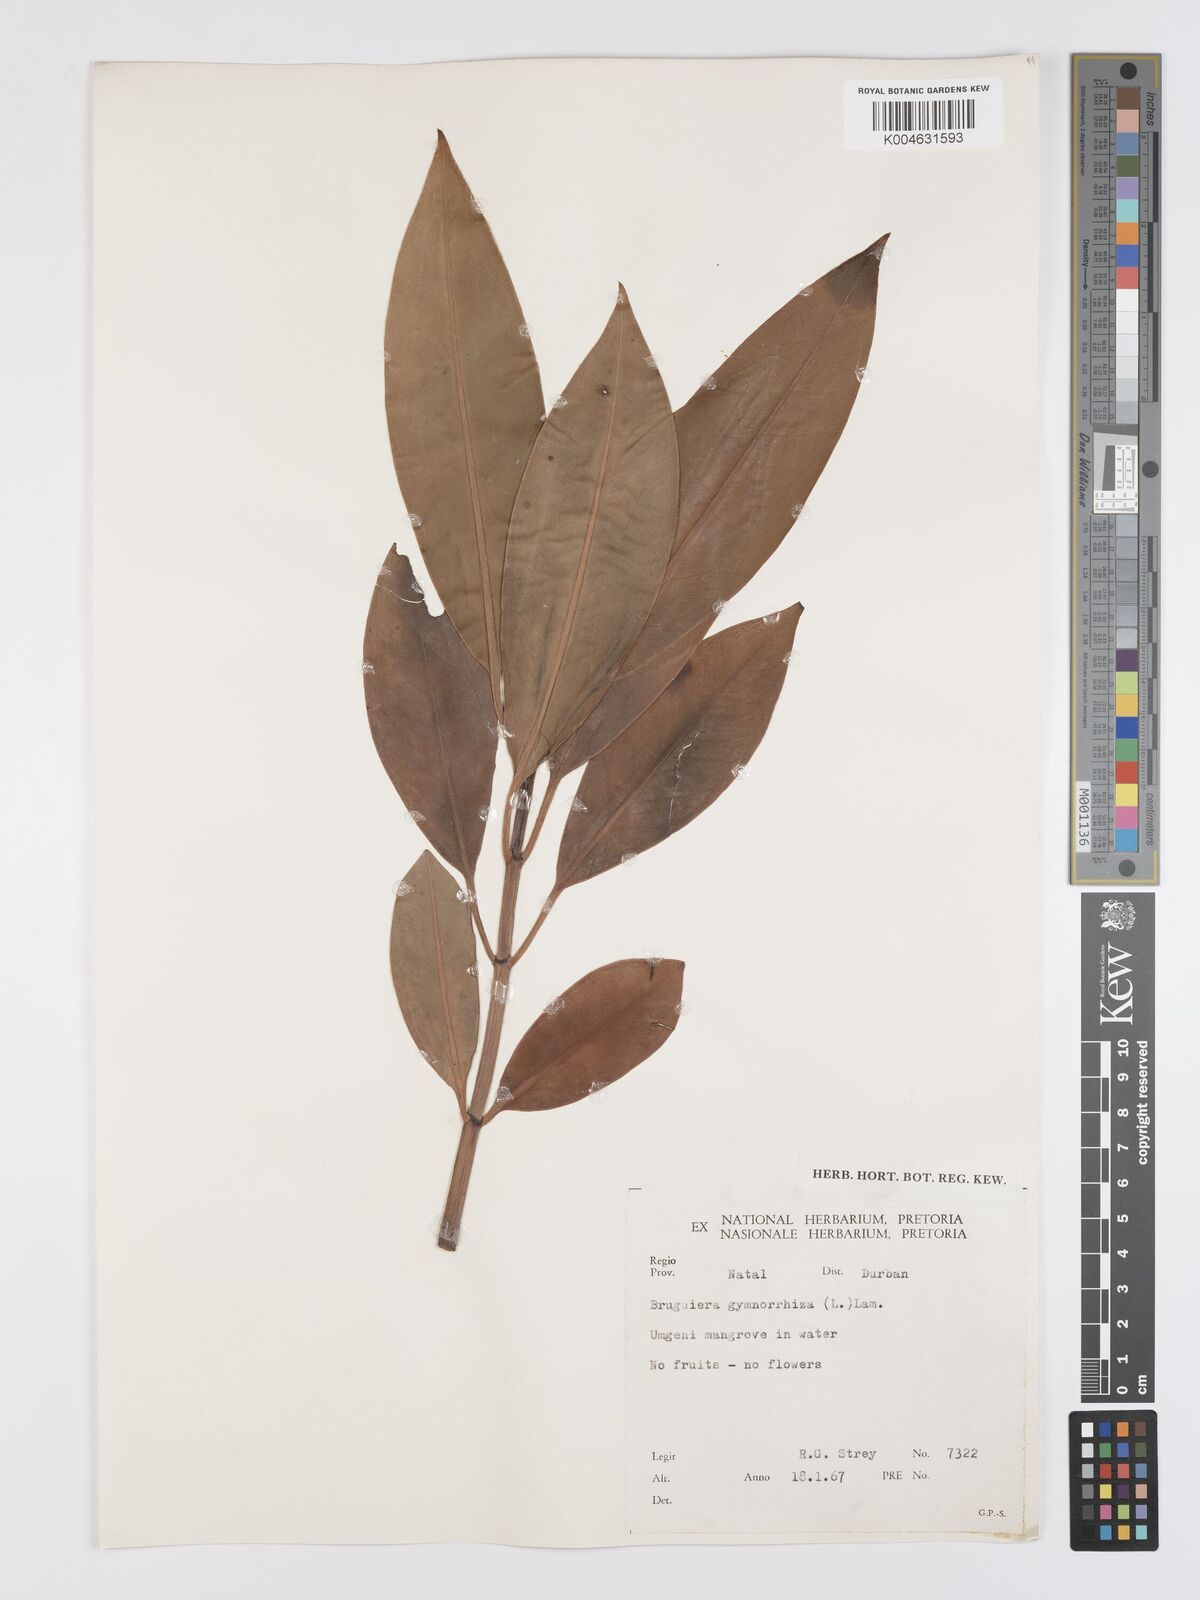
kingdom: Plantae
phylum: Tracheophyta
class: Magnoliopsida
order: Malpighiales
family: Rhizophoraceae
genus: Bruguiera
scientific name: Bruguiera gymnorhiza
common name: Oriental mangrove
